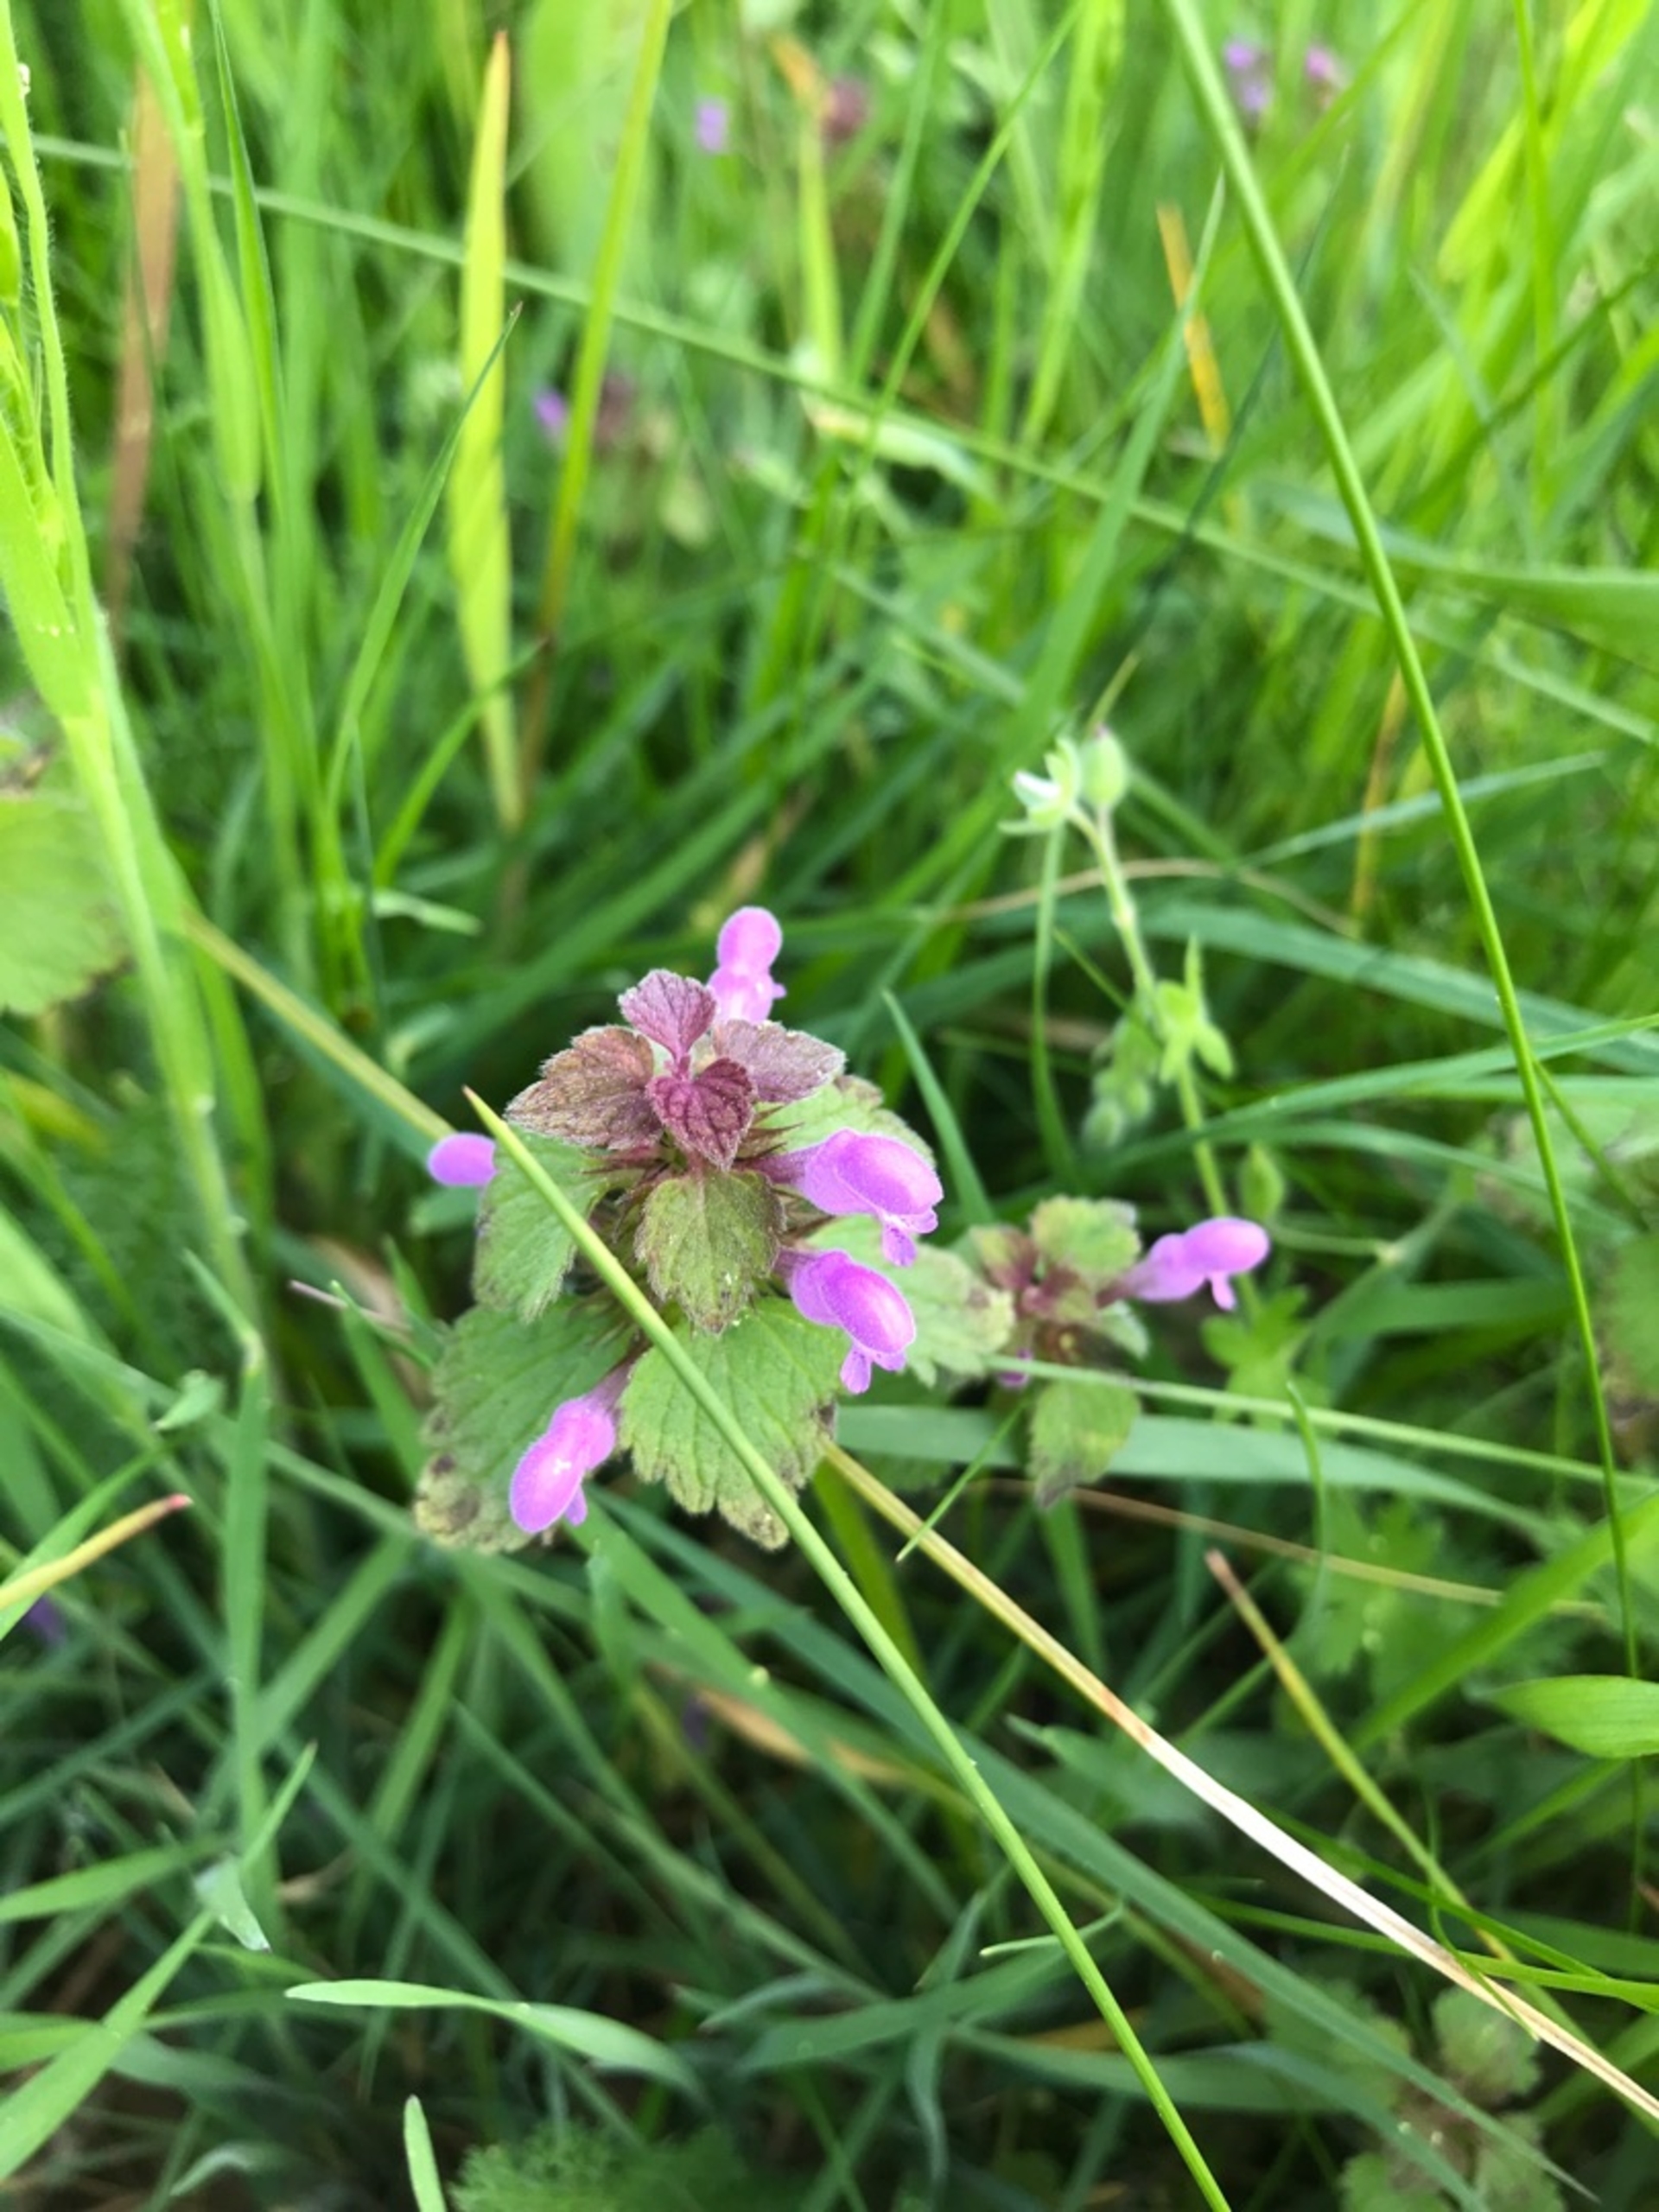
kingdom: Plantae
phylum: Tracheophyta
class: Magnoliopsida
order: Lamiales
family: Lamiaceae
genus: Lamium
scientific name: Lamium purpureum
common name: Rød tvetand
